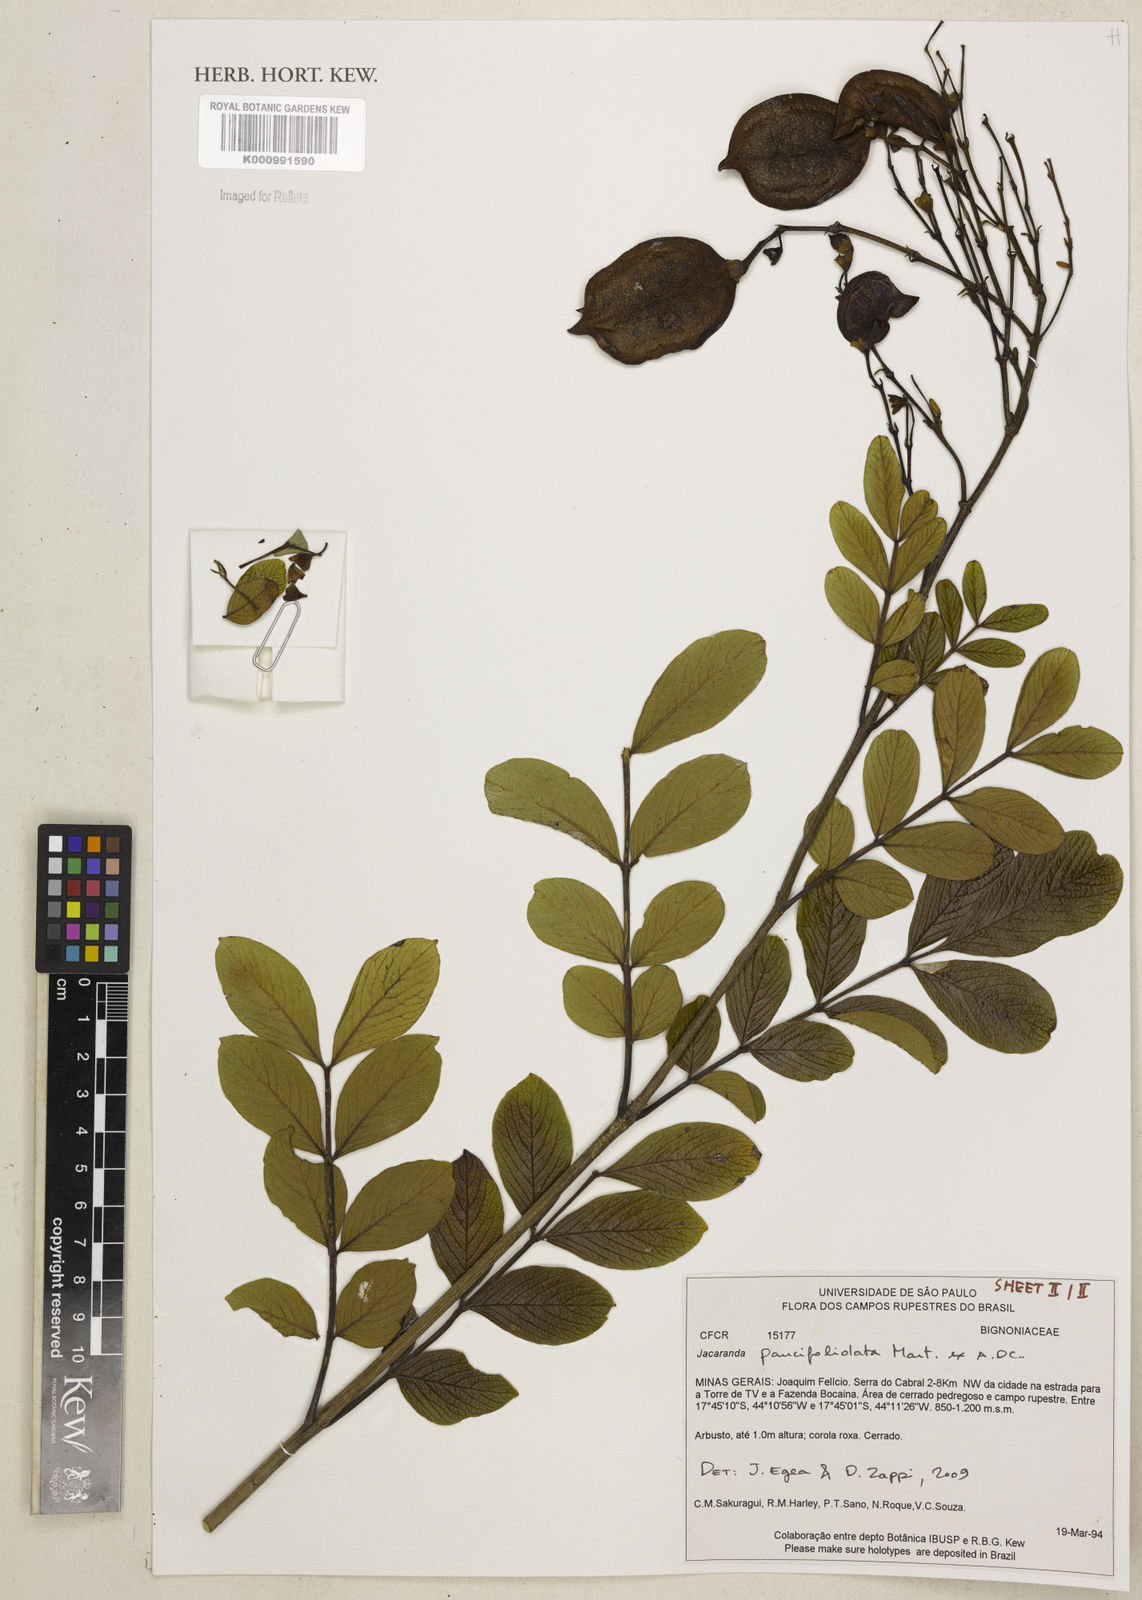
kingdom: Plantae
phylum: Tracheophyta
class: Magnoliopsida
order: Lamiales
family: Bignoniaceae
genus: Jacaranda
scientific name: Jacaranda
